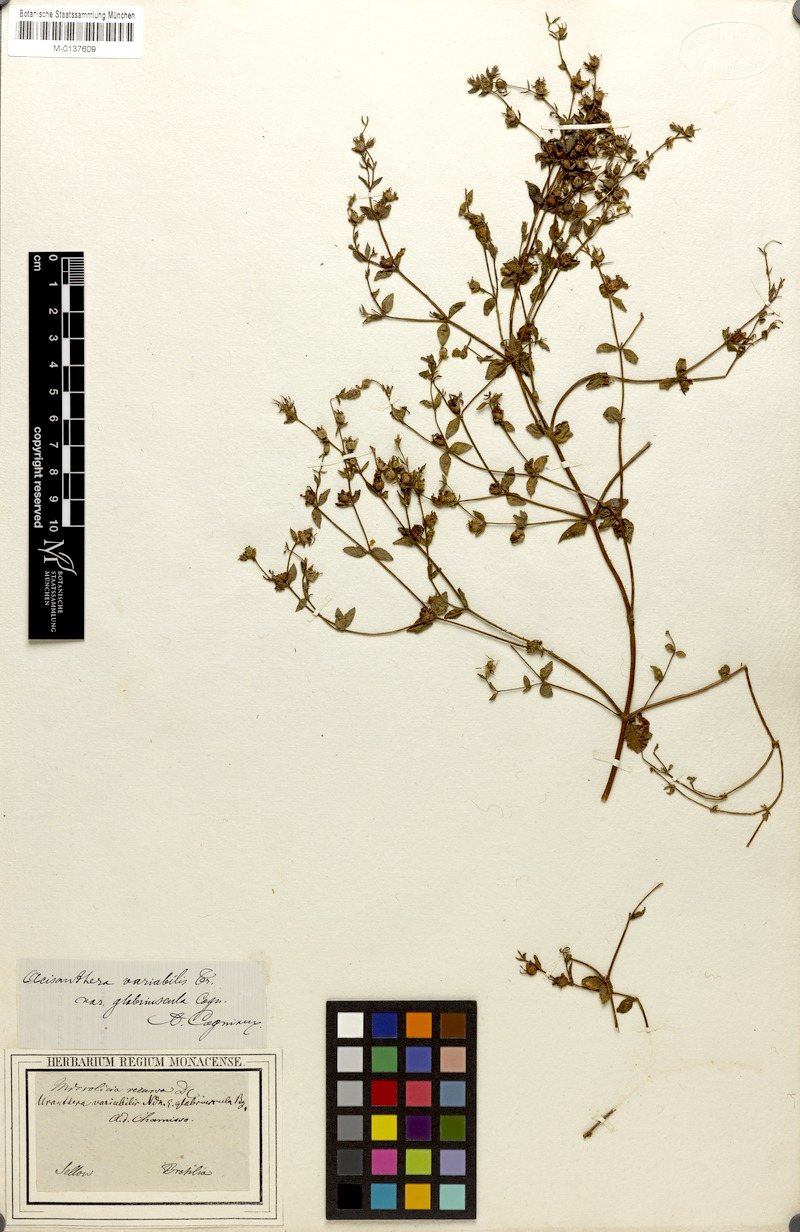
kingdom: Plantae
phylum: Tracheophyta
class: Magnoliopsida
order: Myrtales
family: Melastomataceae
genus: Acisanthera
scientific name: Acisanthera variabilis
